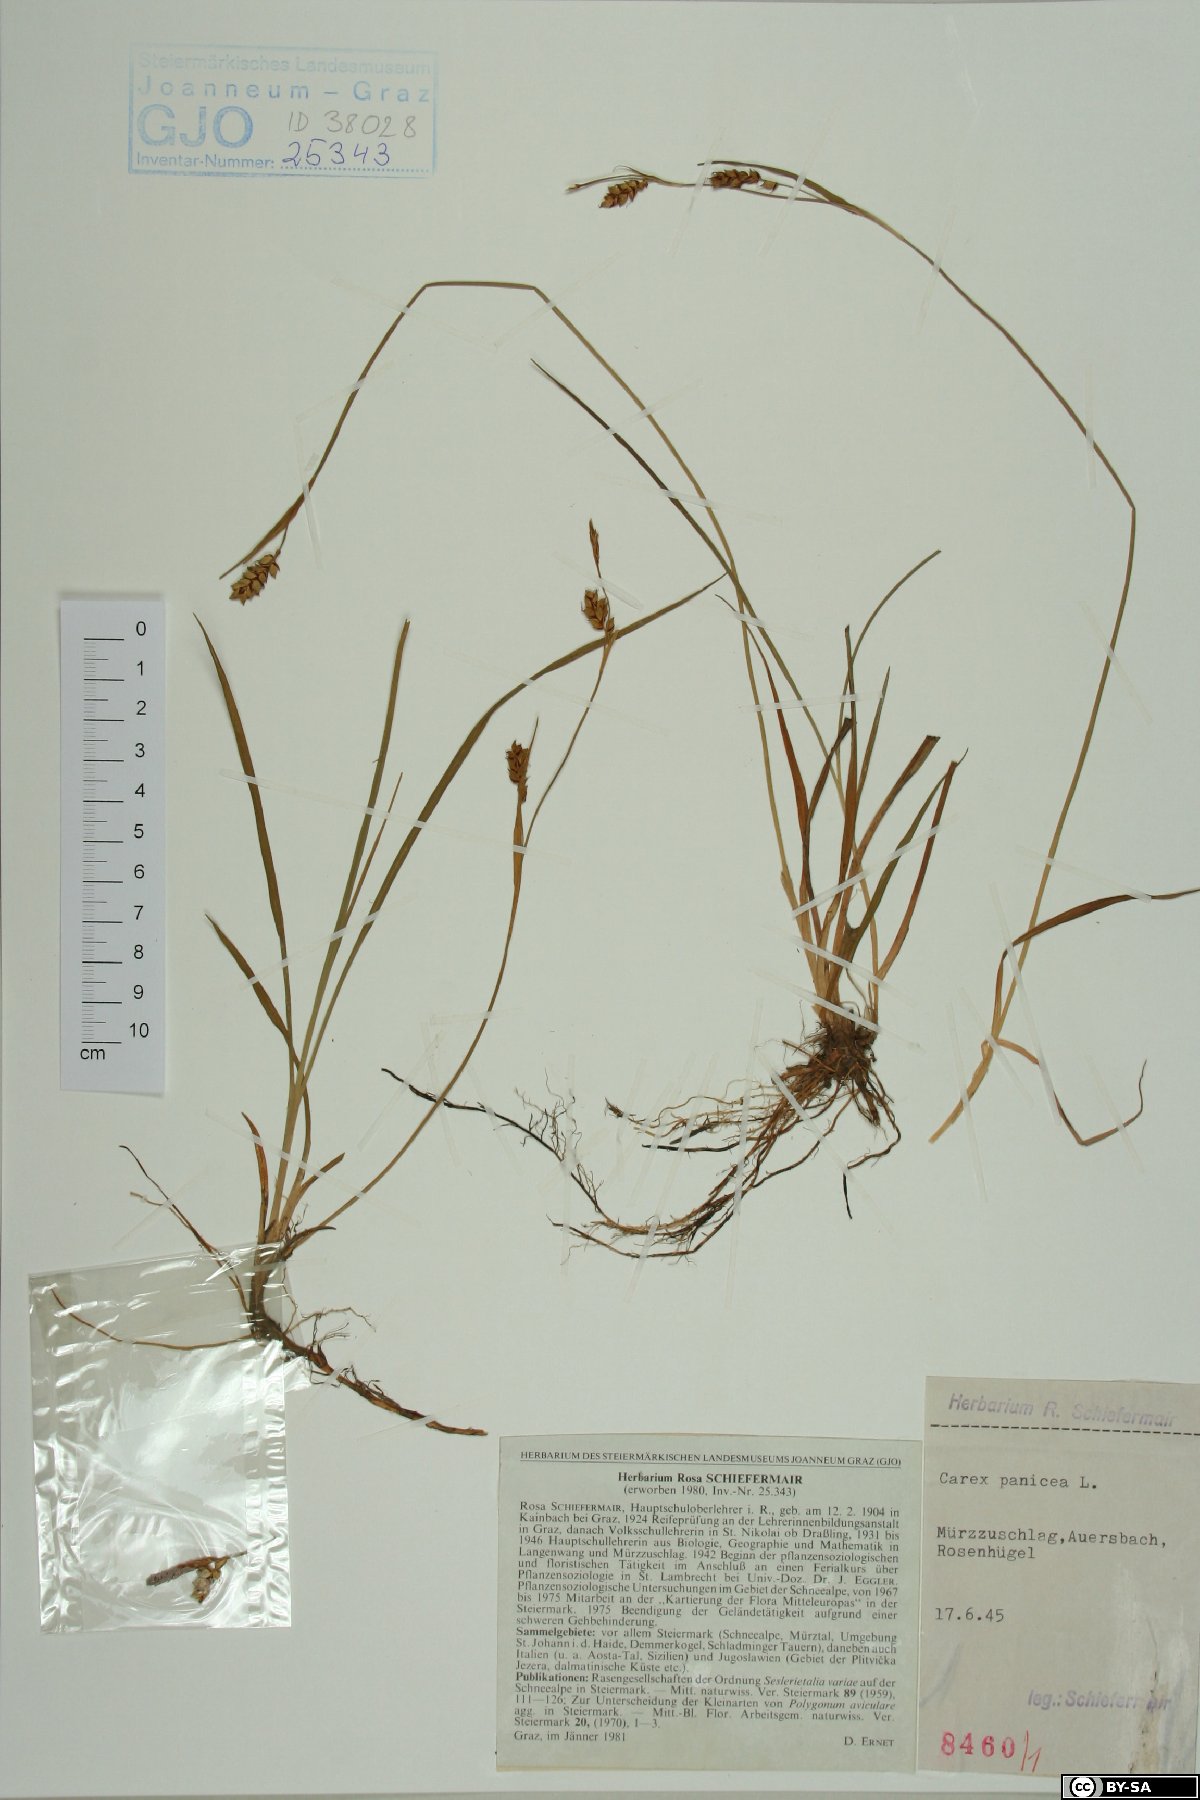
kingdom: Plantae
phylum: Tracheophyta
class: Liliopsida
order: Poales
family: Cyperaceae
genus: Carex
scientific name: Carex panicea
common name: Carnation sedge
